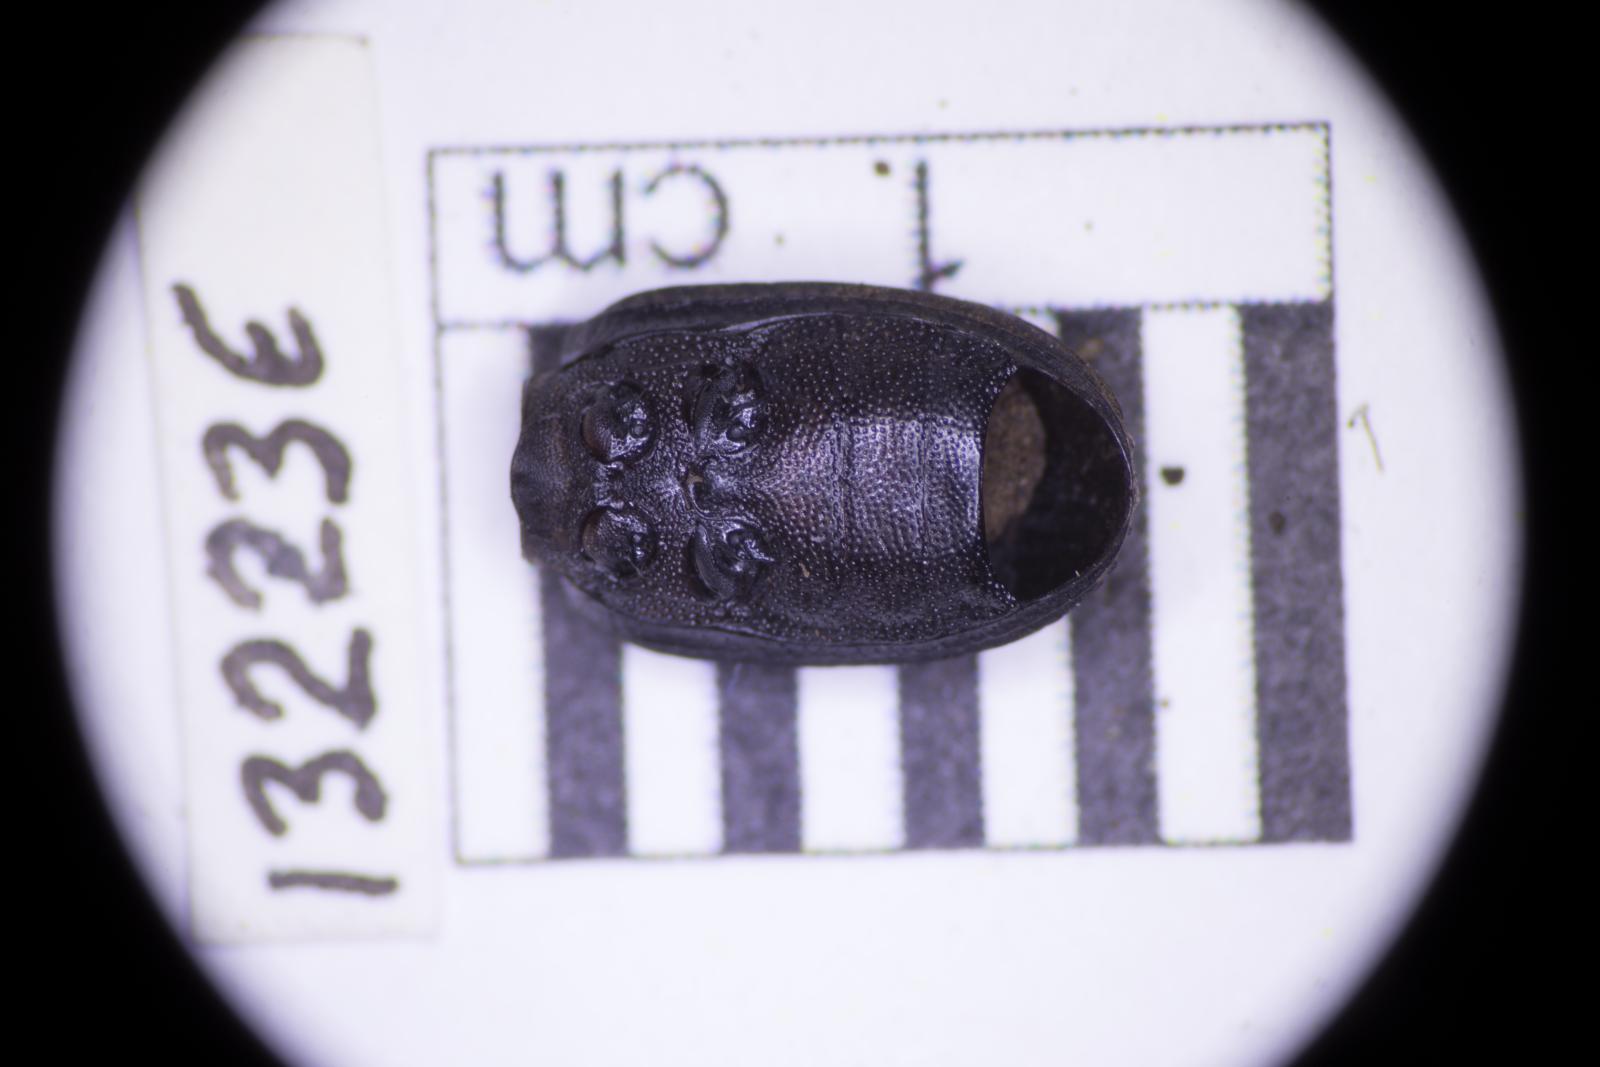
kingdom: Animalia
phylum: Arthropoda
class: Insecta
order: Coleoptera
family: Tenebrionidae
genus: Apsena
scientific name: Apsena laticornis
